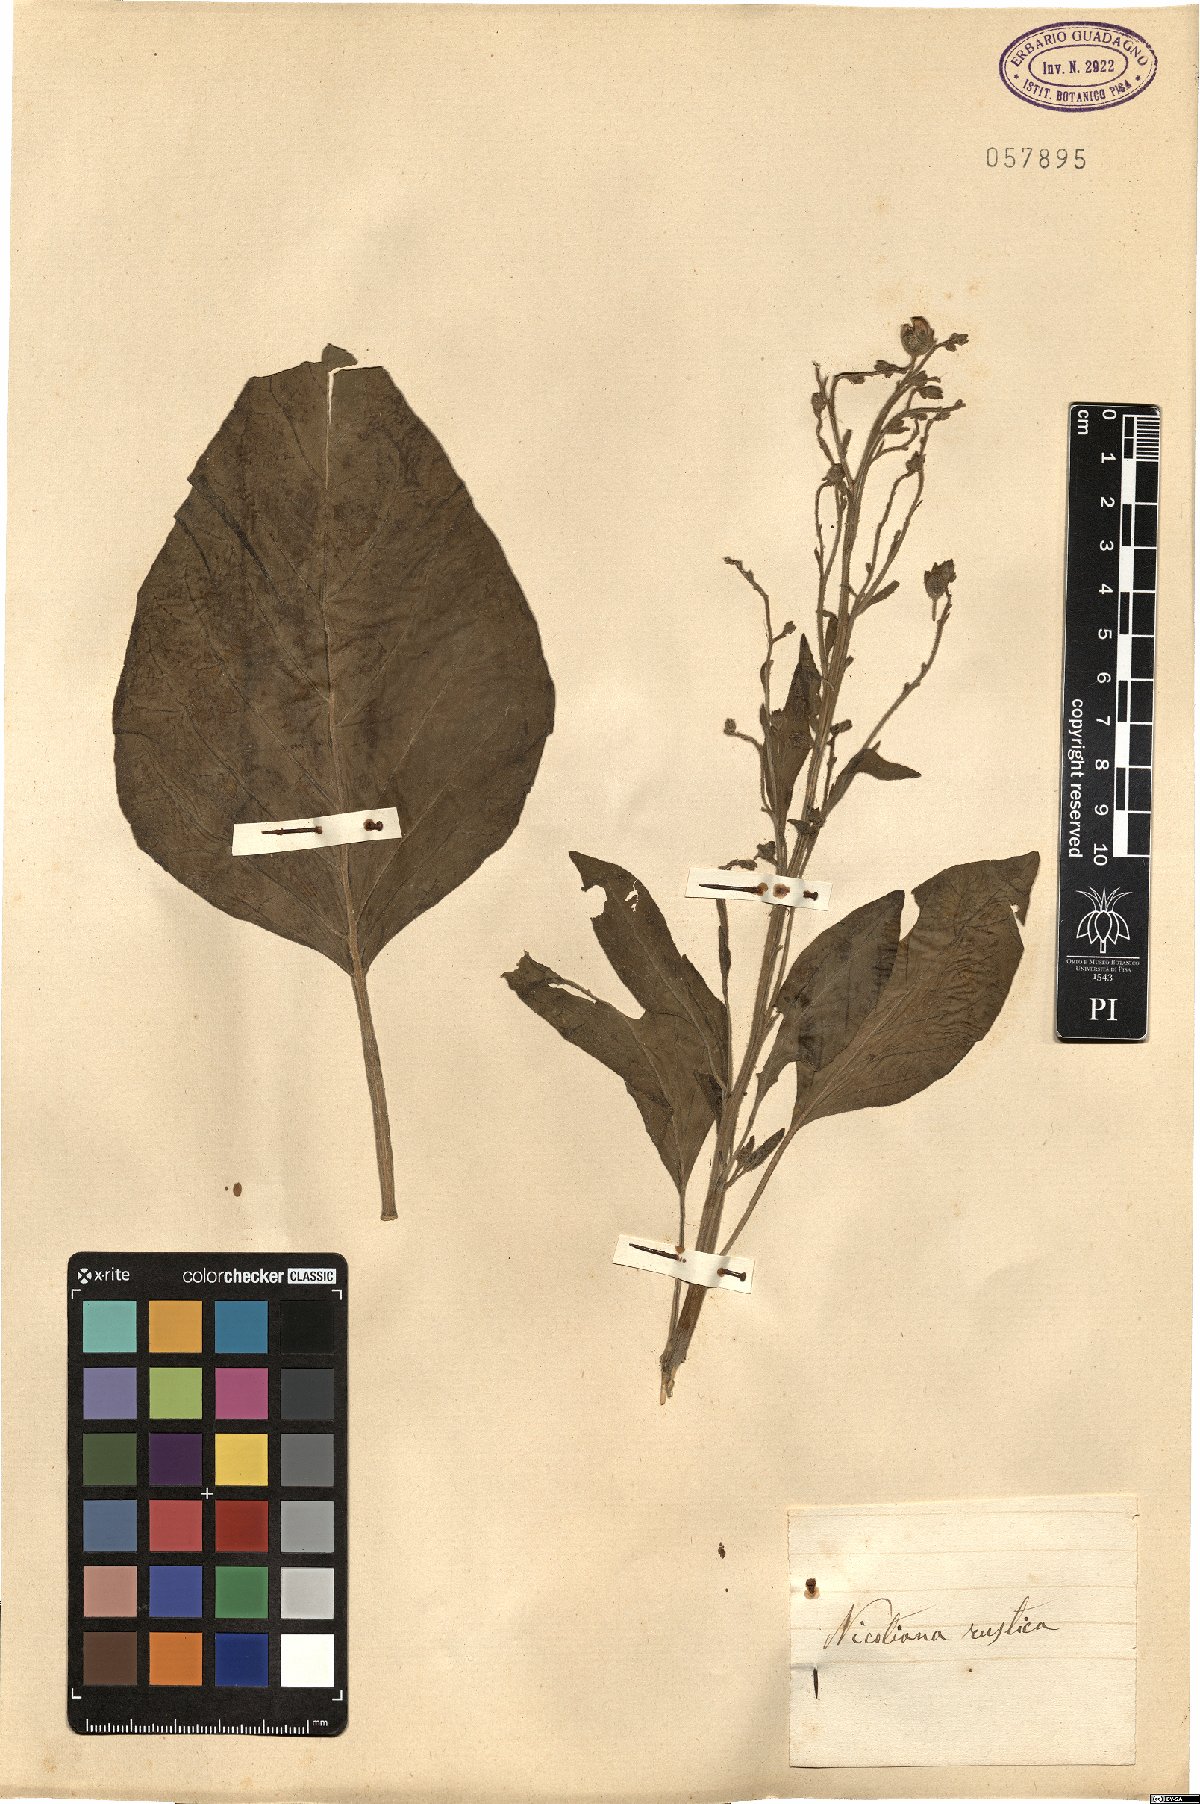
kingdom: Plantae
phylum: Tracheophyta
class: Magnoliopsida
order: Solanales
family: Solanaceae
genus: Nicotiana
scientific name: Nicotiana rustica
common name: Wild tobacco
